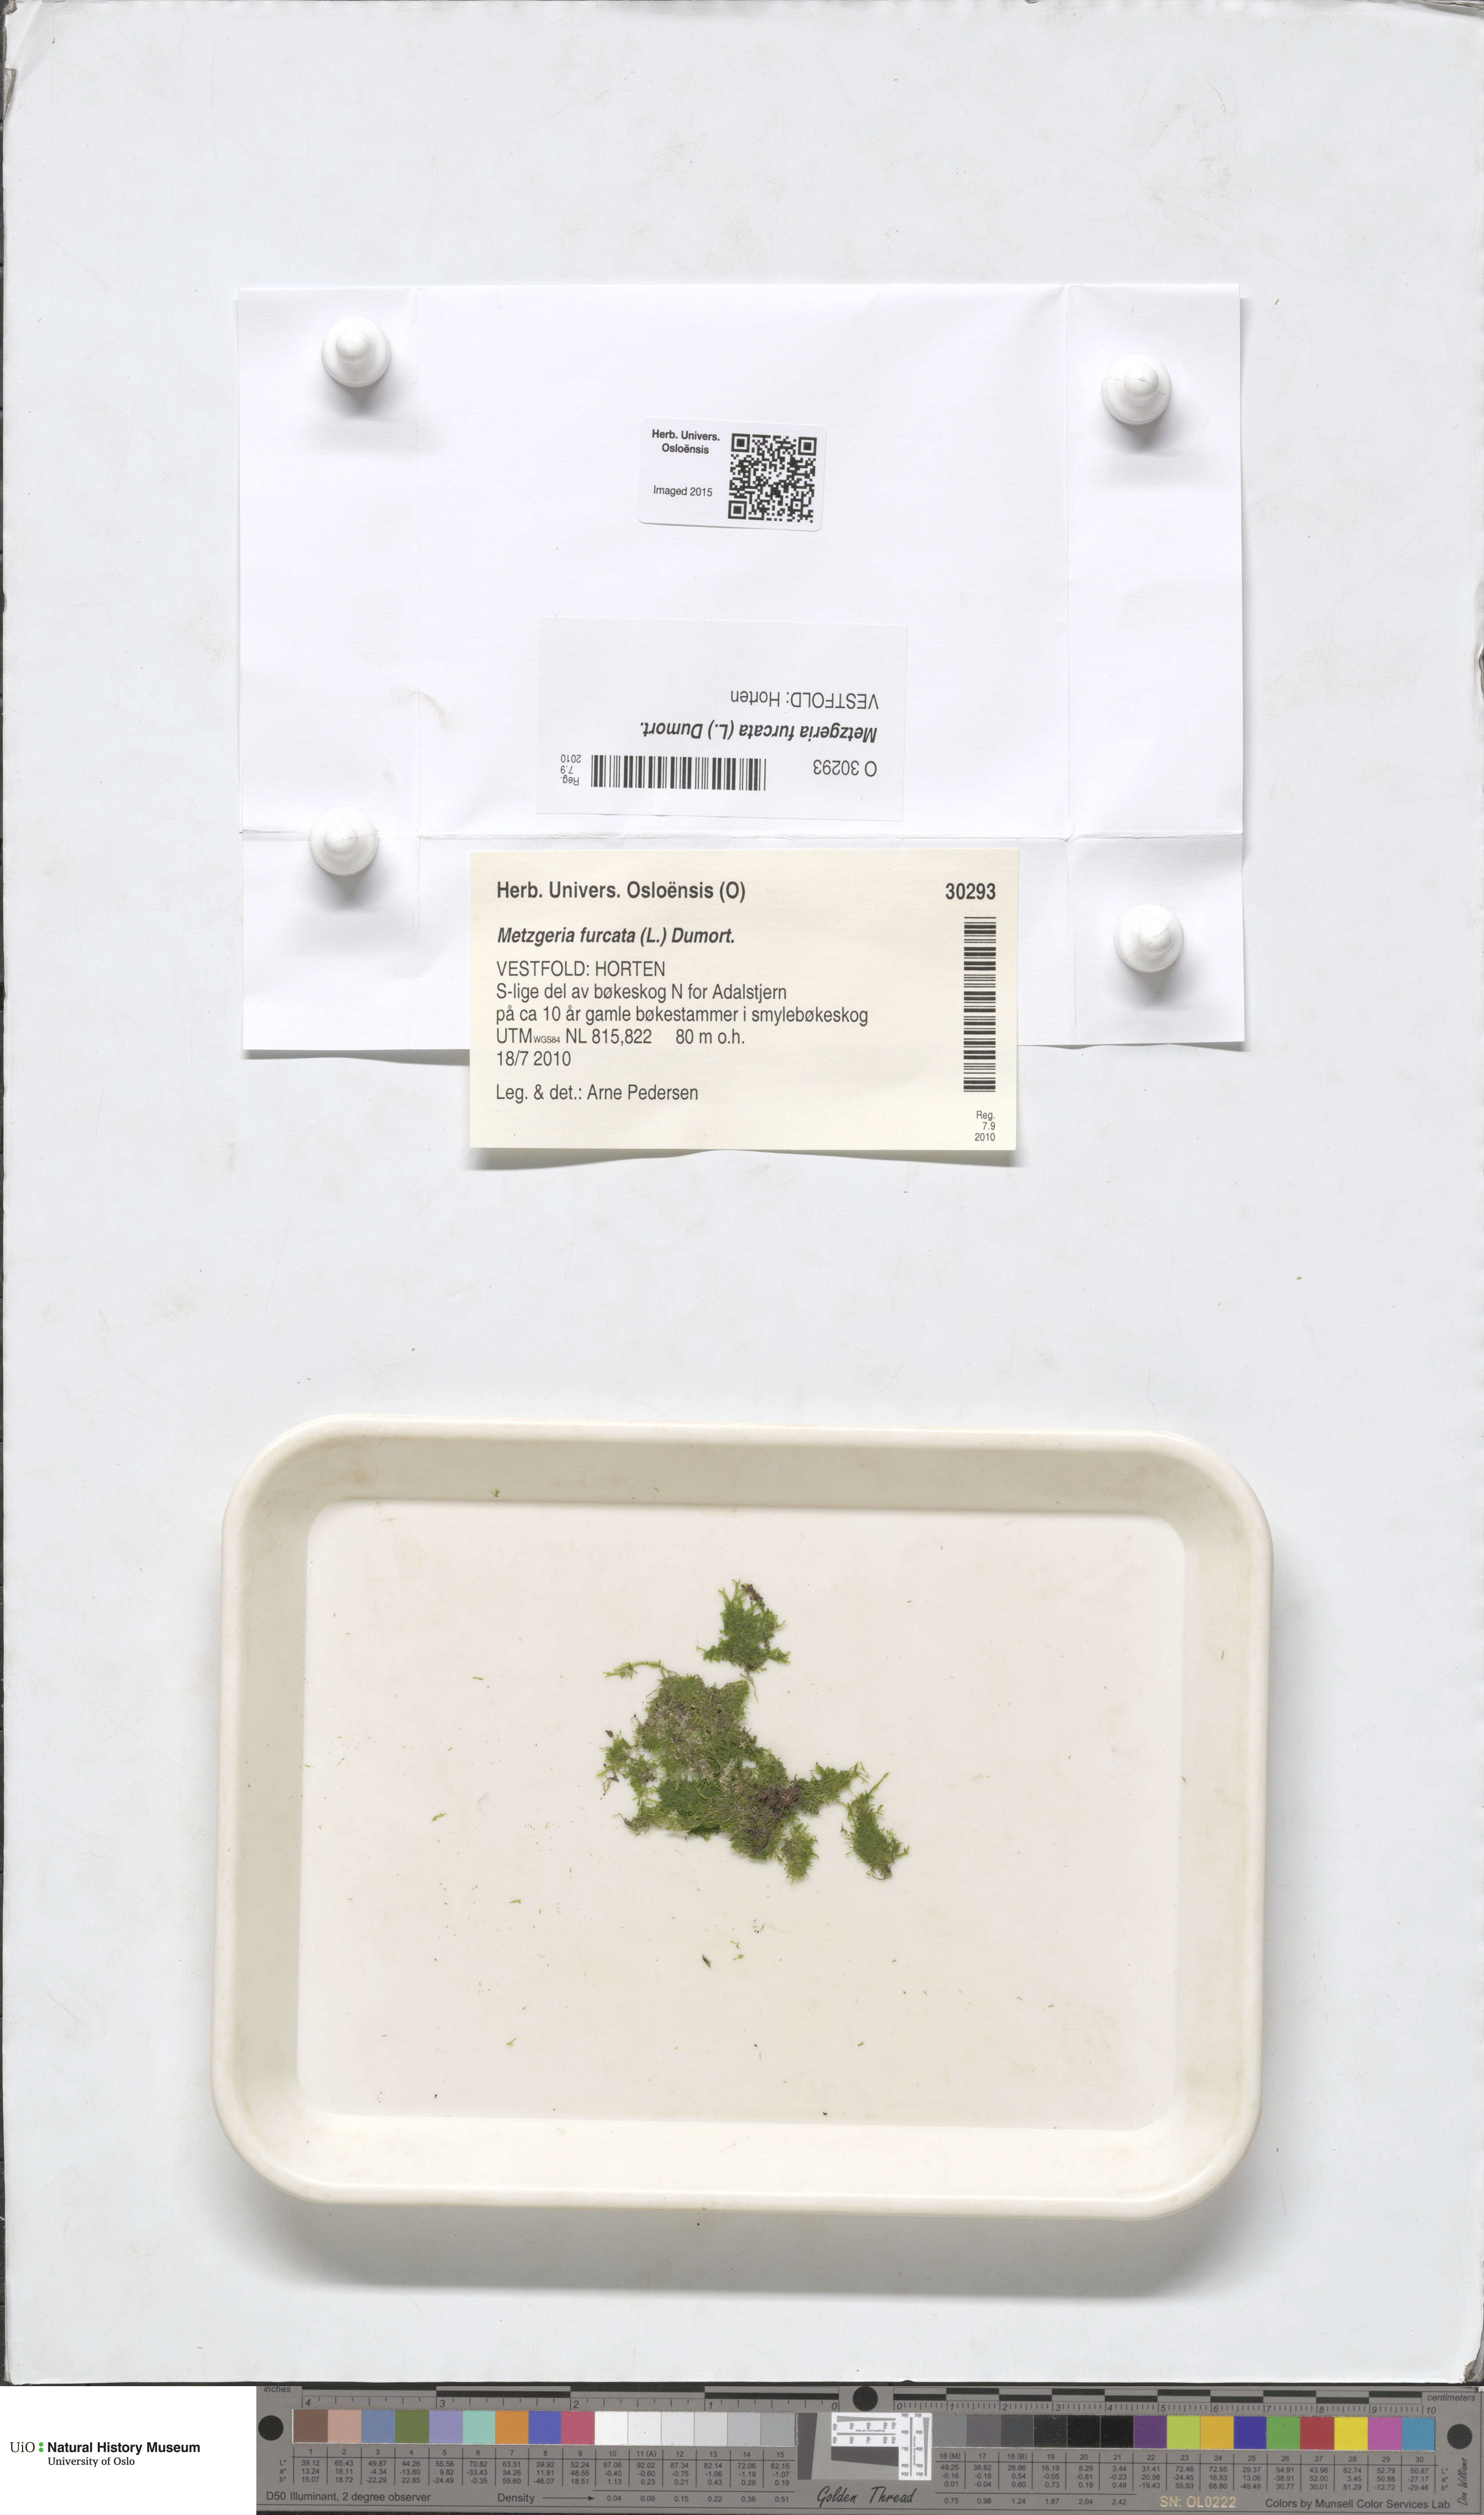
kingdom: Plantae
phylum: Marchantiophyta
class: Jungermanniopsida
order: Metzgeriales
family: Metzgeriaceae
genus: Metzgeria
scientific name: Metzgeria furcata
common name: Forked veilwort
